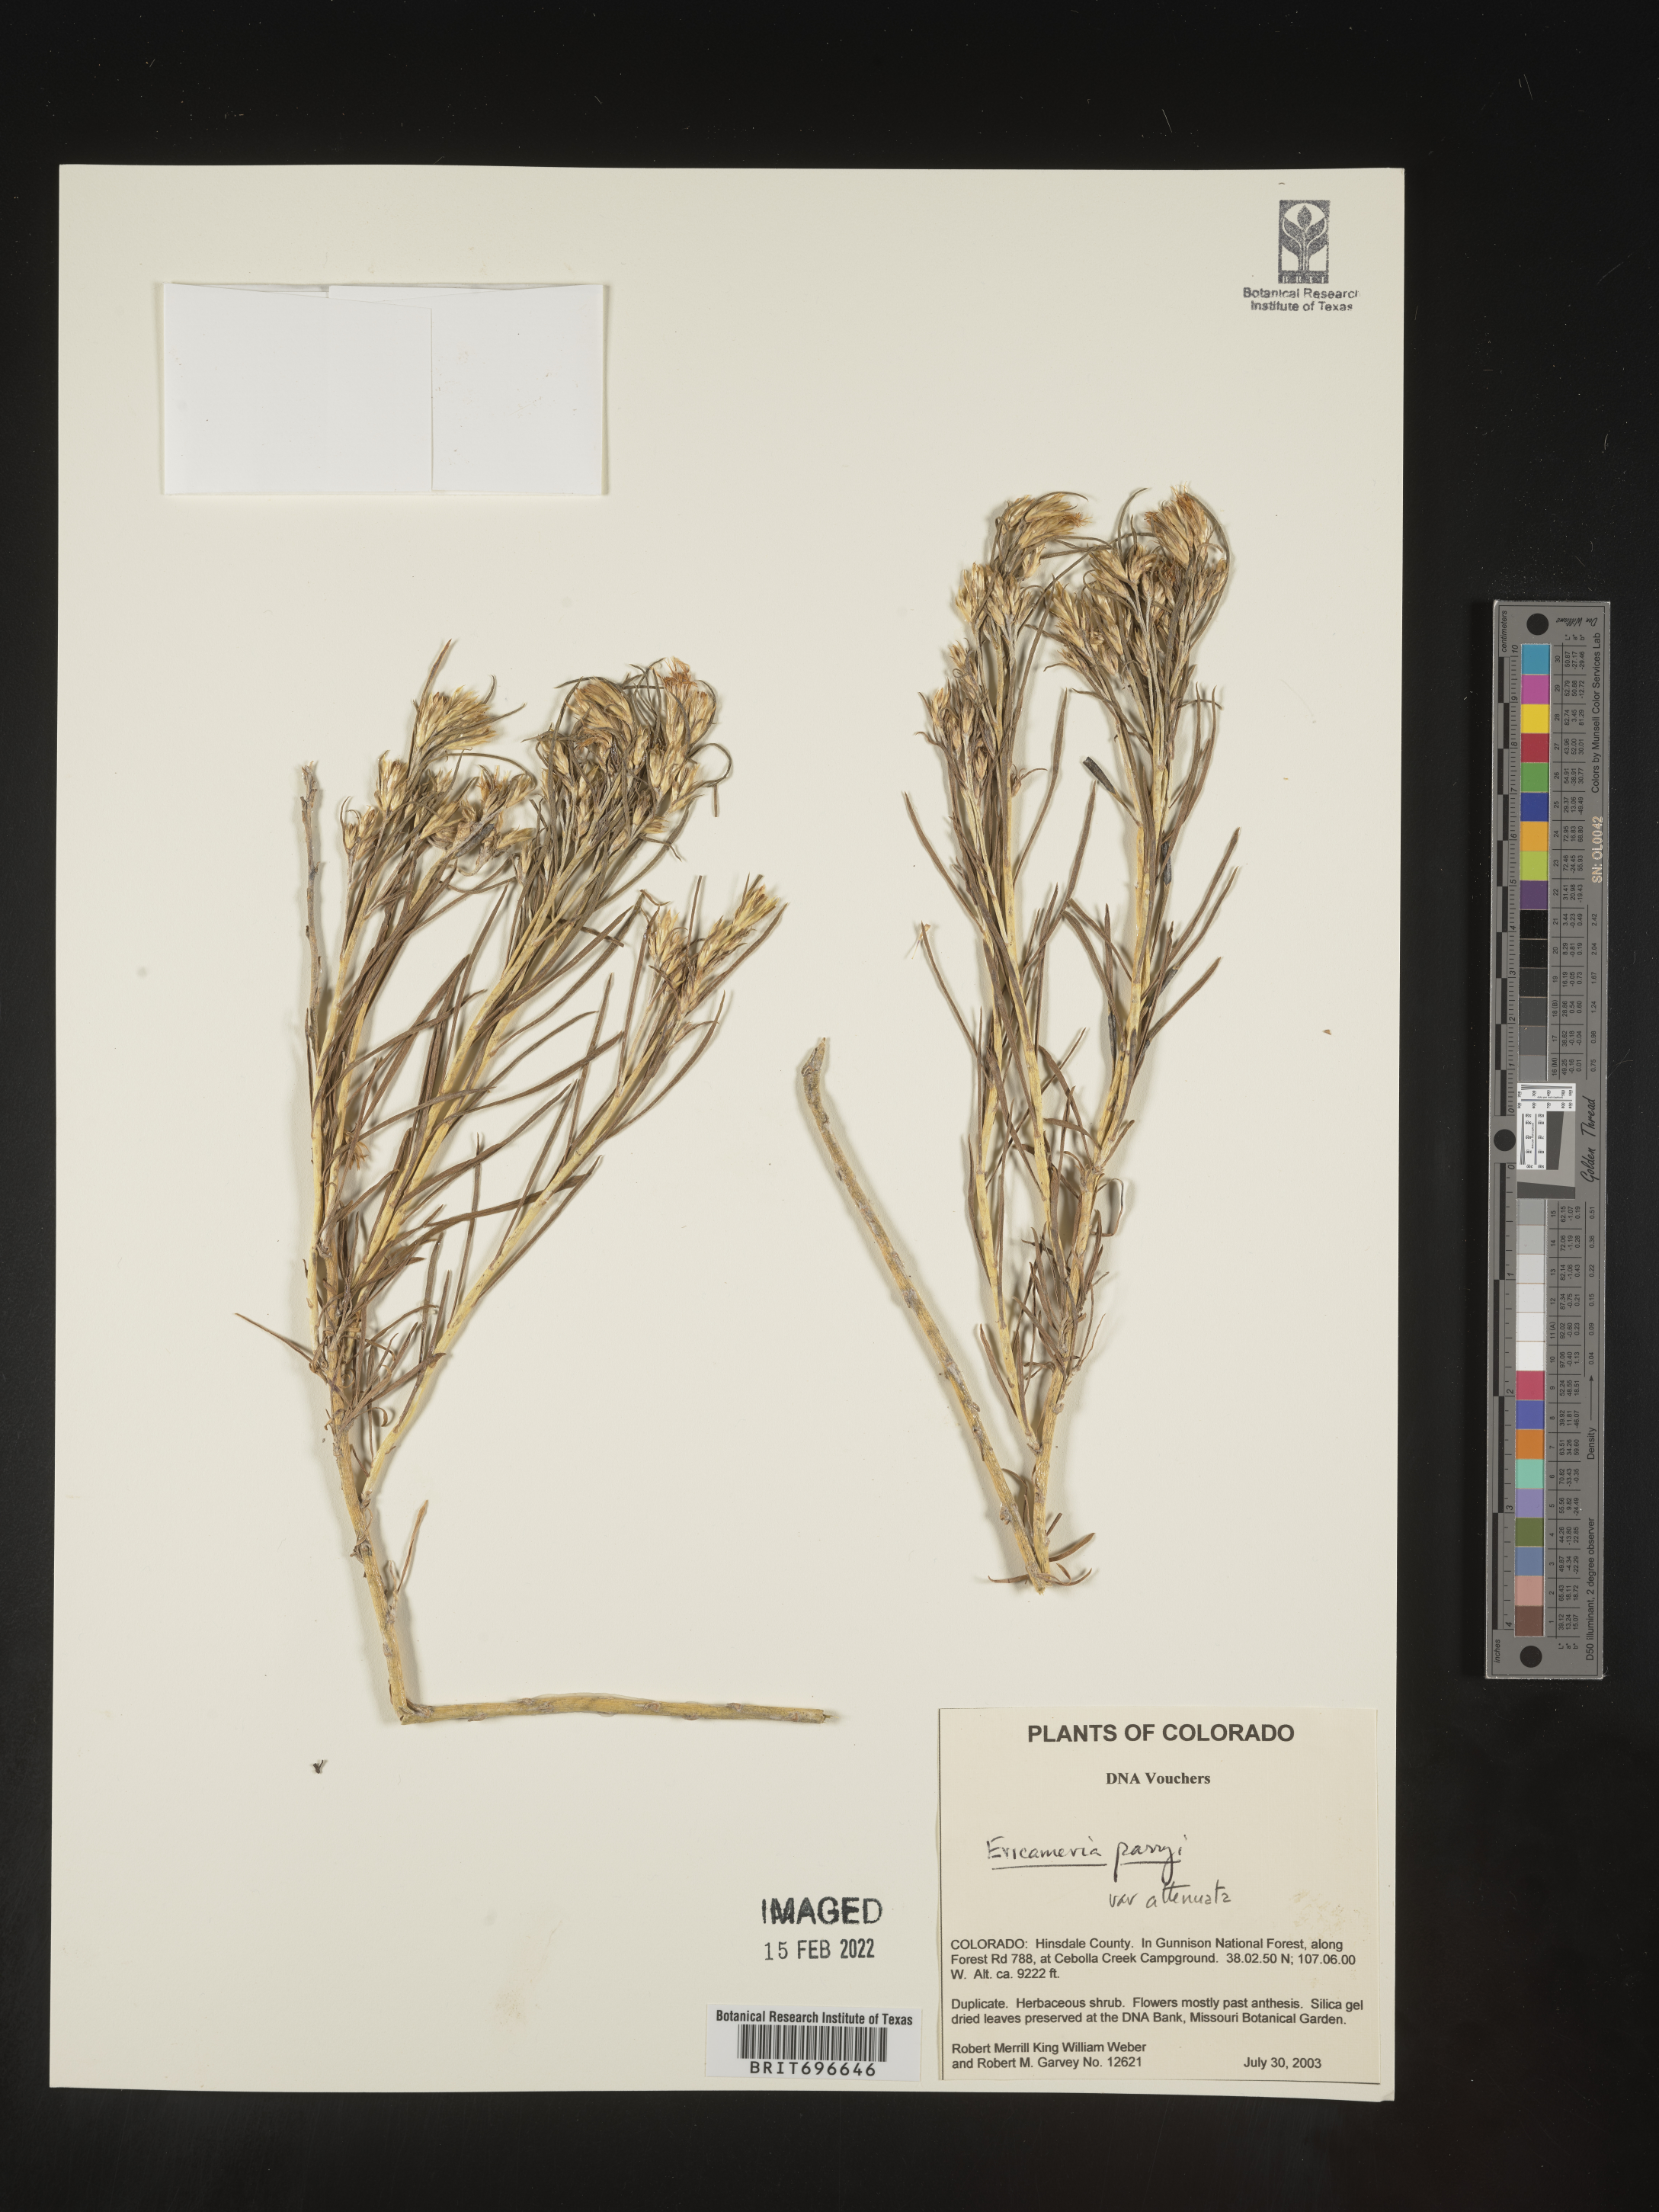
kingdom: Plantae
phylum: Tracheophyta
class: Magnoliopsida
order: Asterales
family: Asteraceae
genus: Ericameria
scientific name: Ericameria parryi
